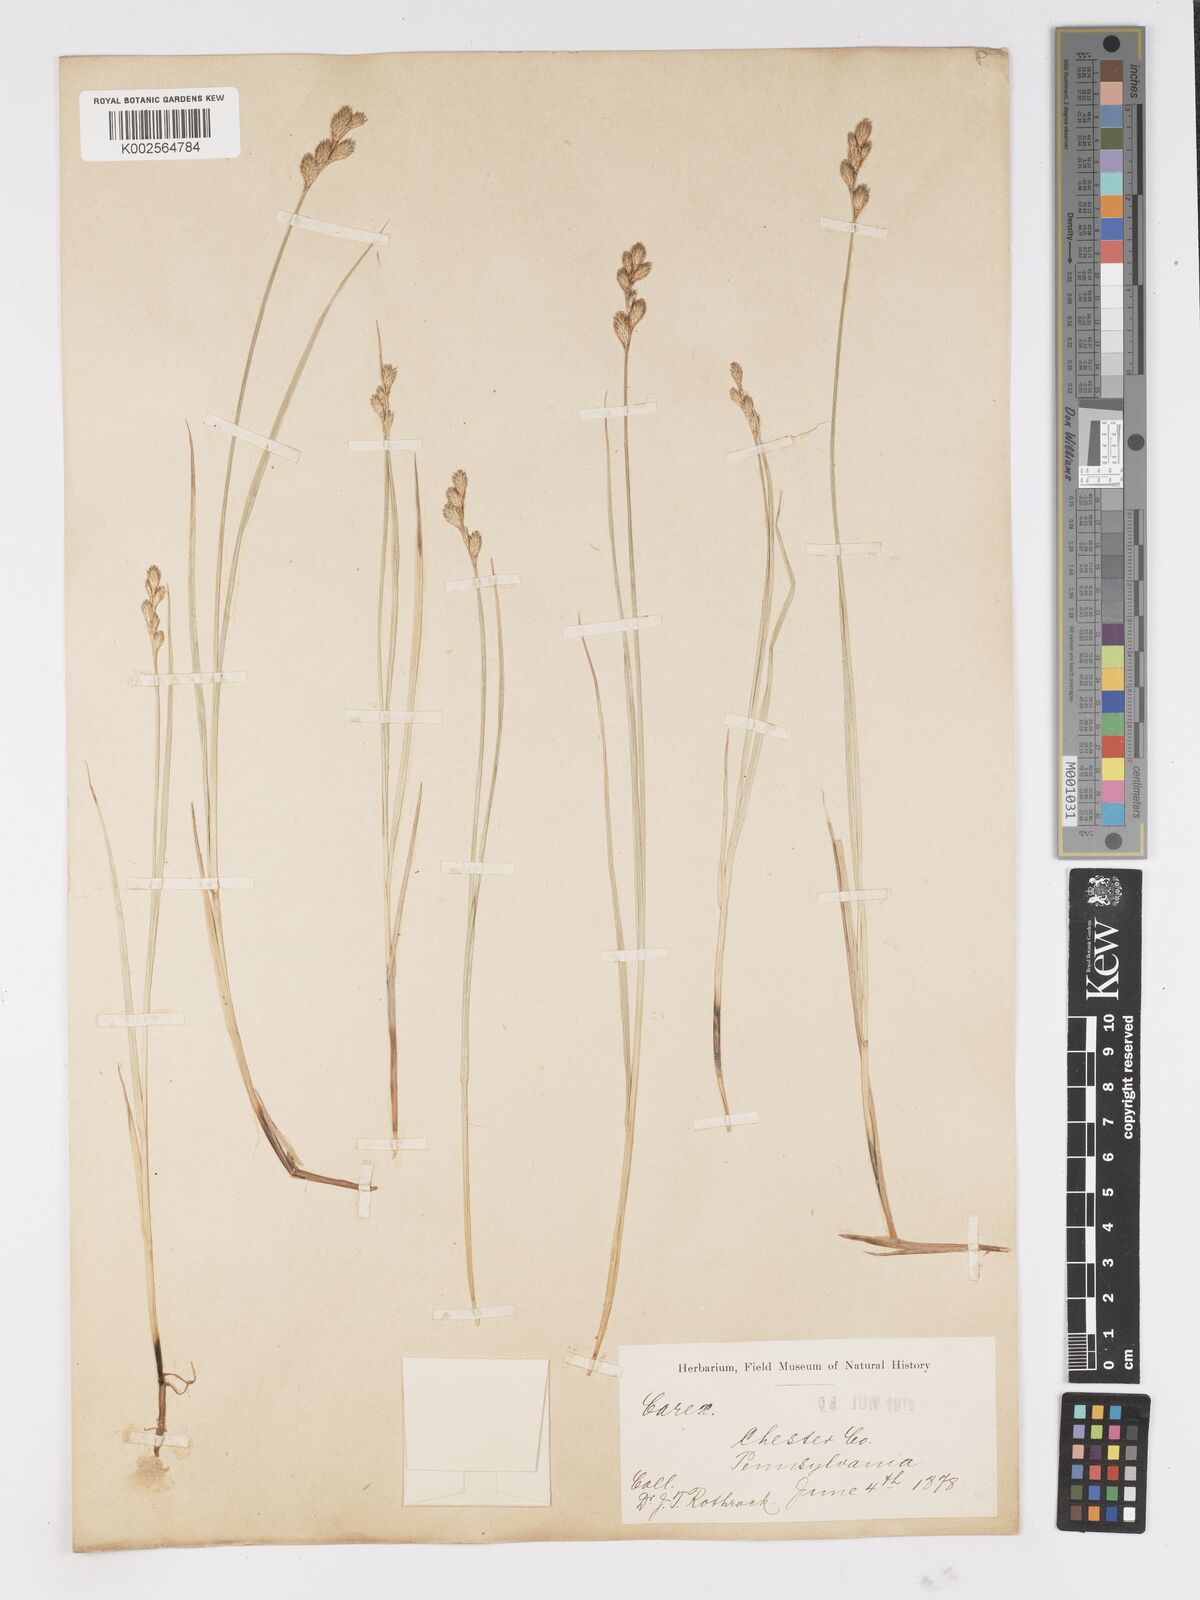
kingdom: Plantae
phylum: Tracheophyta
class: Liliopsida
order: Poales
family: Cyperaceae
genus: Carex
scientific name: Carex
